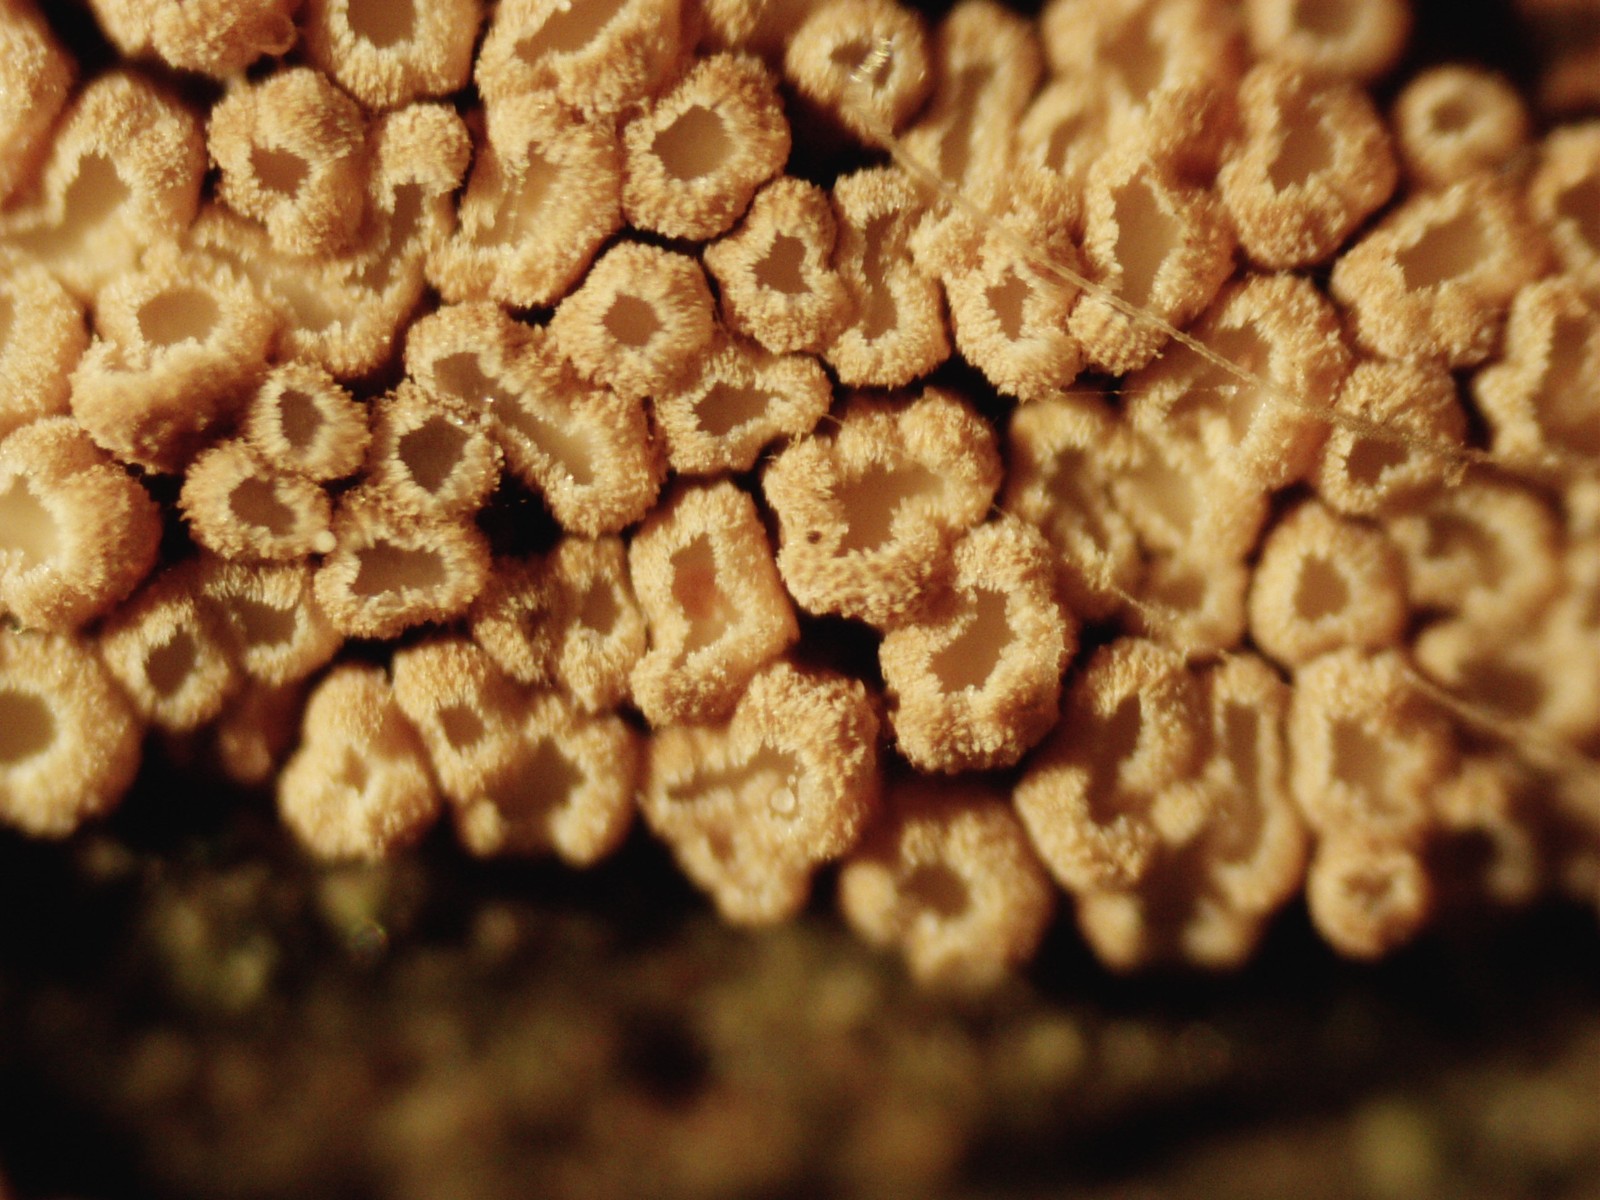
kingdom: Fungi
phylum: Basidiomycota
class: Agaricomycetes
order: Agaricales
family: Niaceae
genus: Merismodes
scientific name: Merismodes
